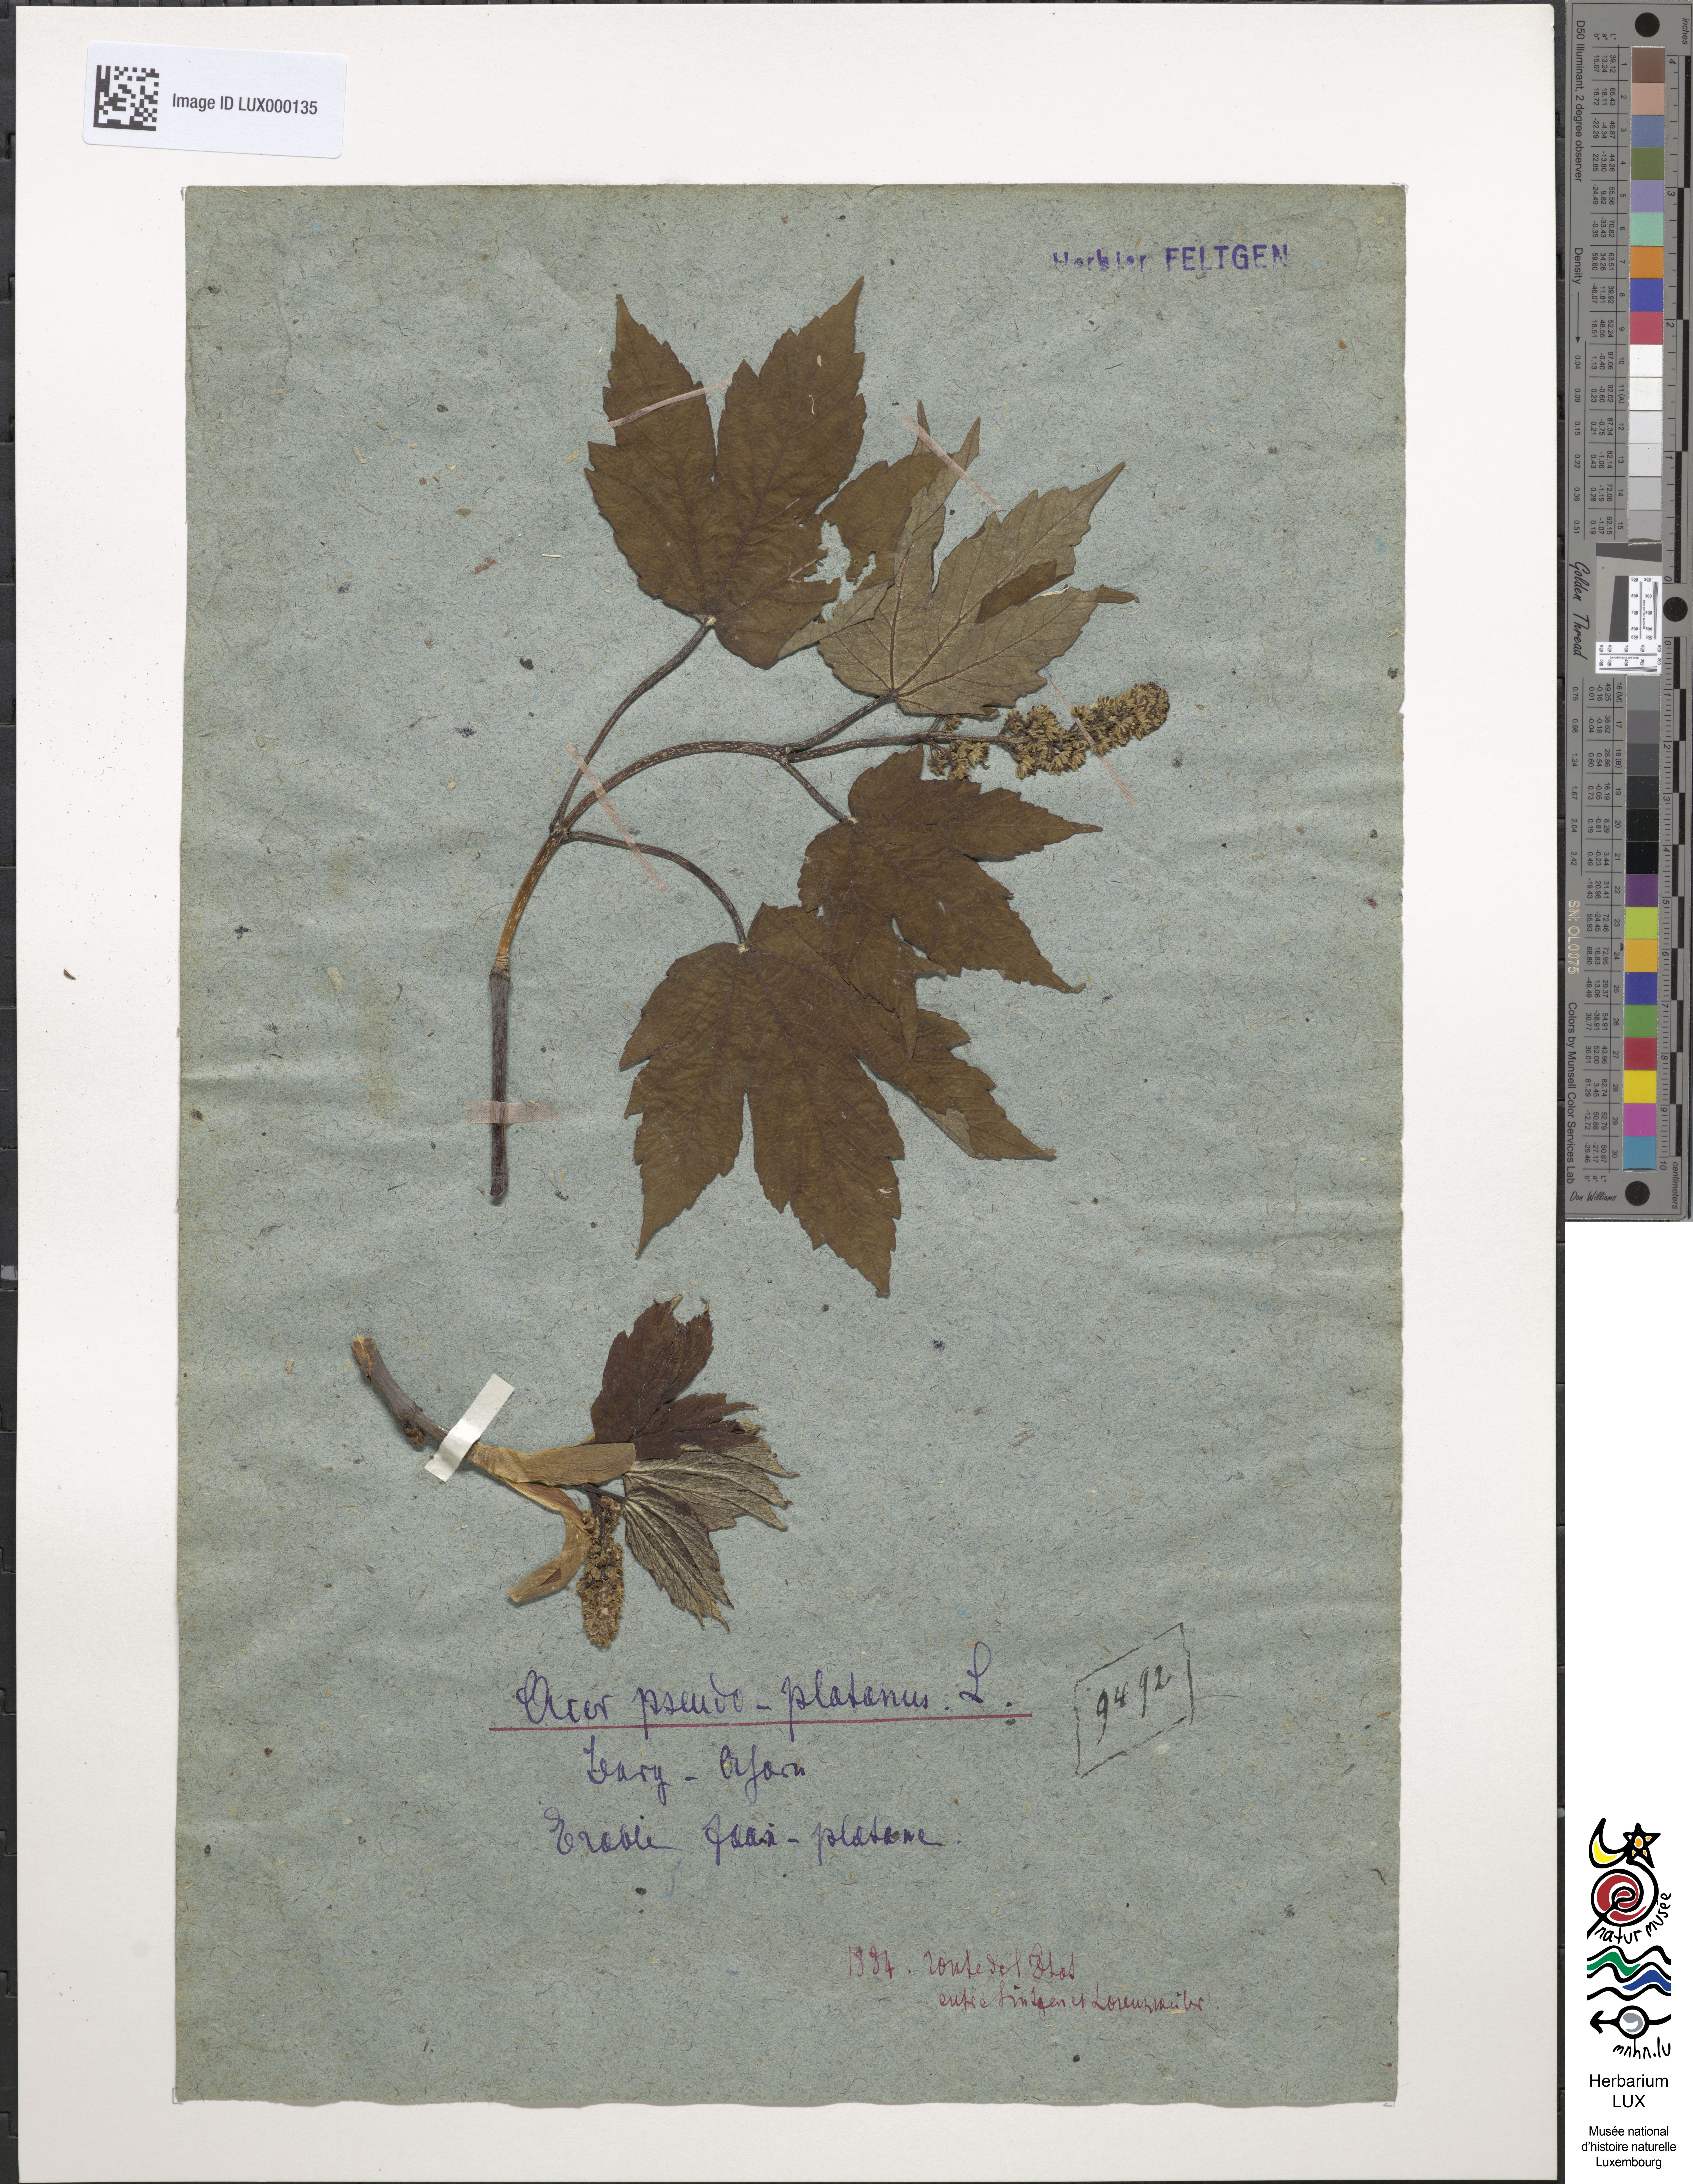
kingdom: Plantae
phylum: Tracheophyta
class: Magnoliopsida
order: Sapindales
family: Sapindaceae
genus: Acer
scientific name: Acer pseudoplatanus
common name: Sycamore
